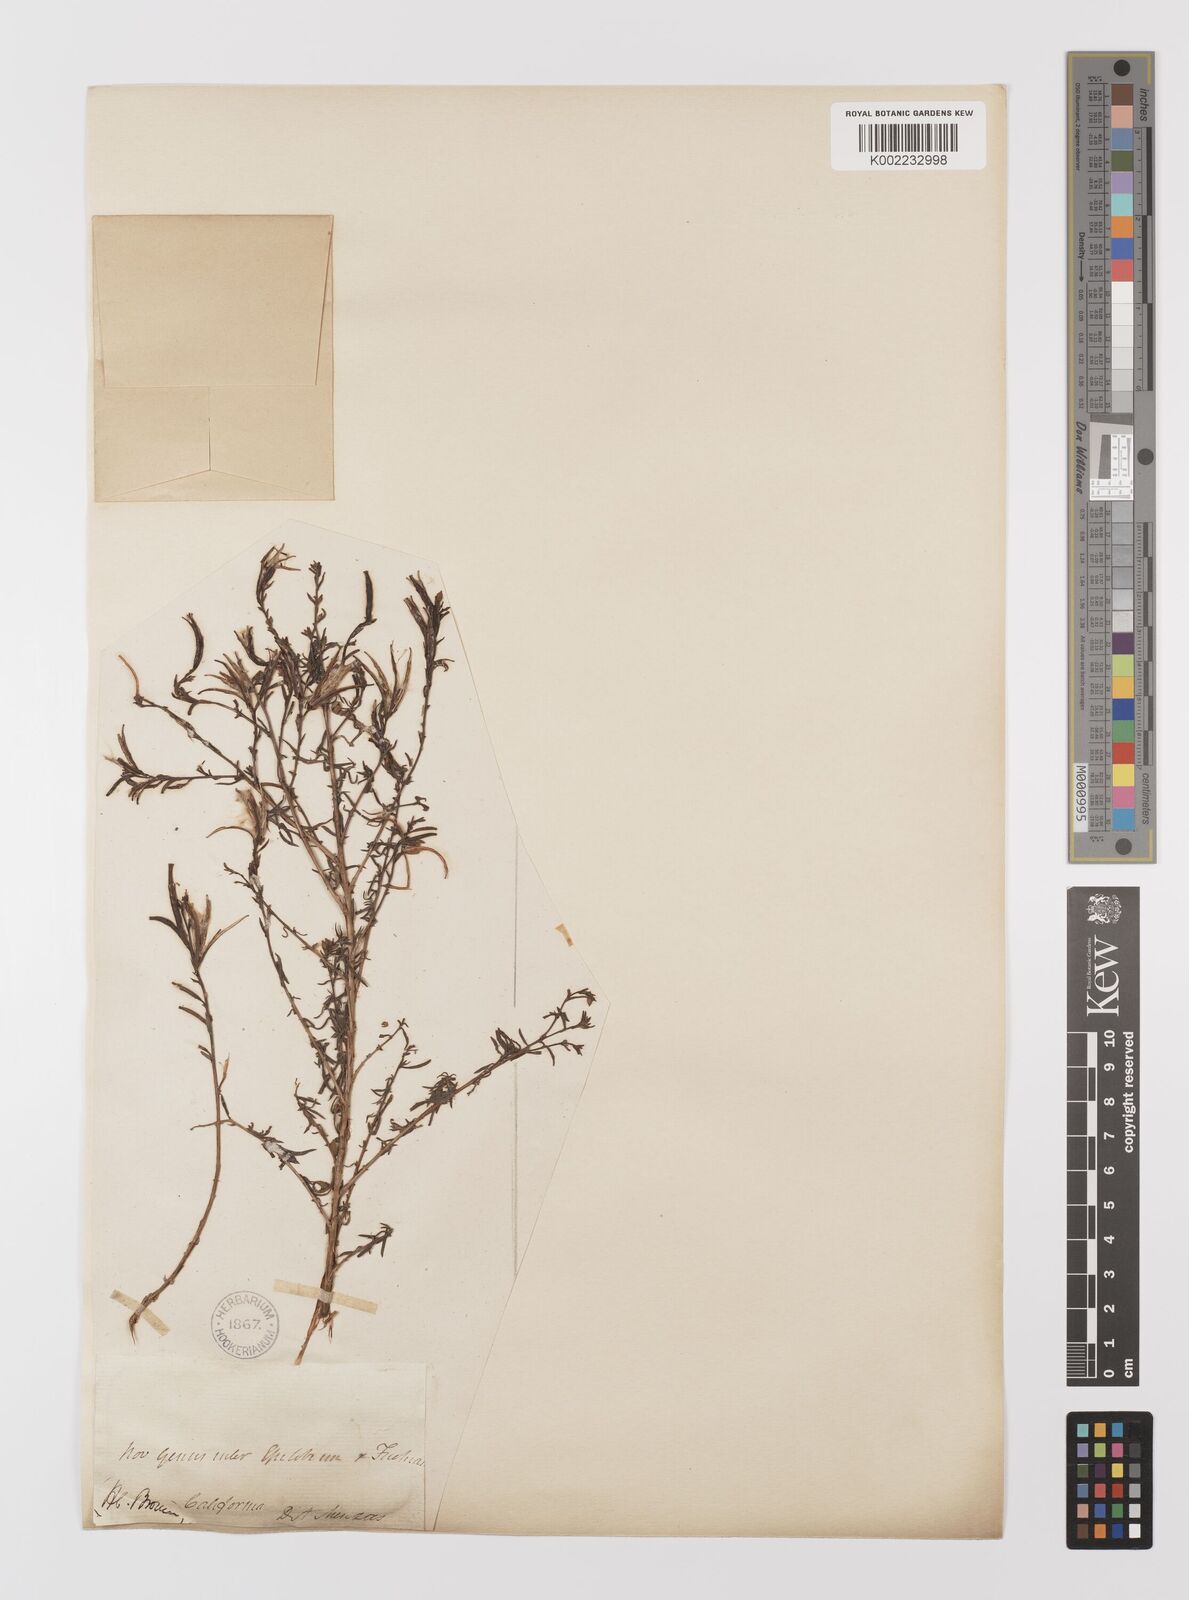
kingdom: Plantae
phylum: Tracheophyta
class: Magnoliopsida
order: Myrtales
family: Onagraceae
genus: Epilobium
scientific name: Epilobium canum
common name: California-fuchsia
